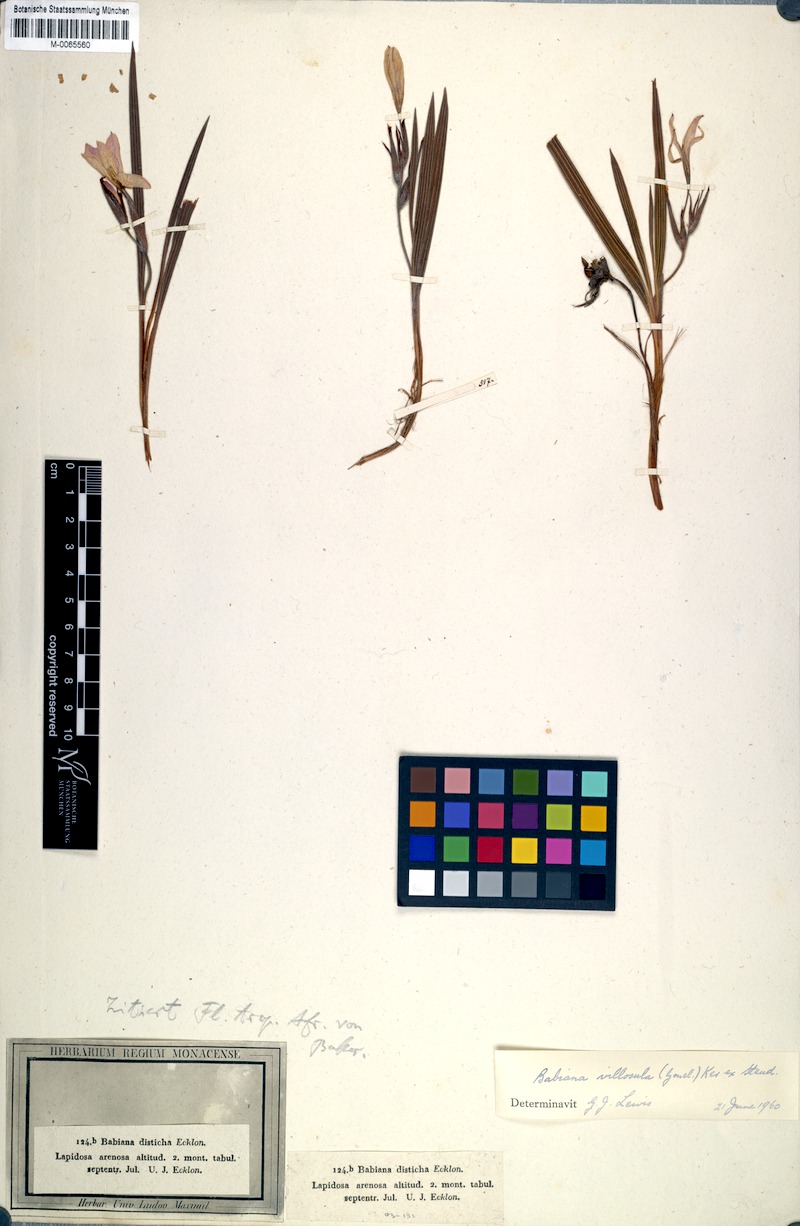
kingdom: Plantae
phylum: Tracheophyta
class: Liliopsida
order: Asparagales
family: Iridaceae
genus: Babiana
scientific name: Babiana villosula
